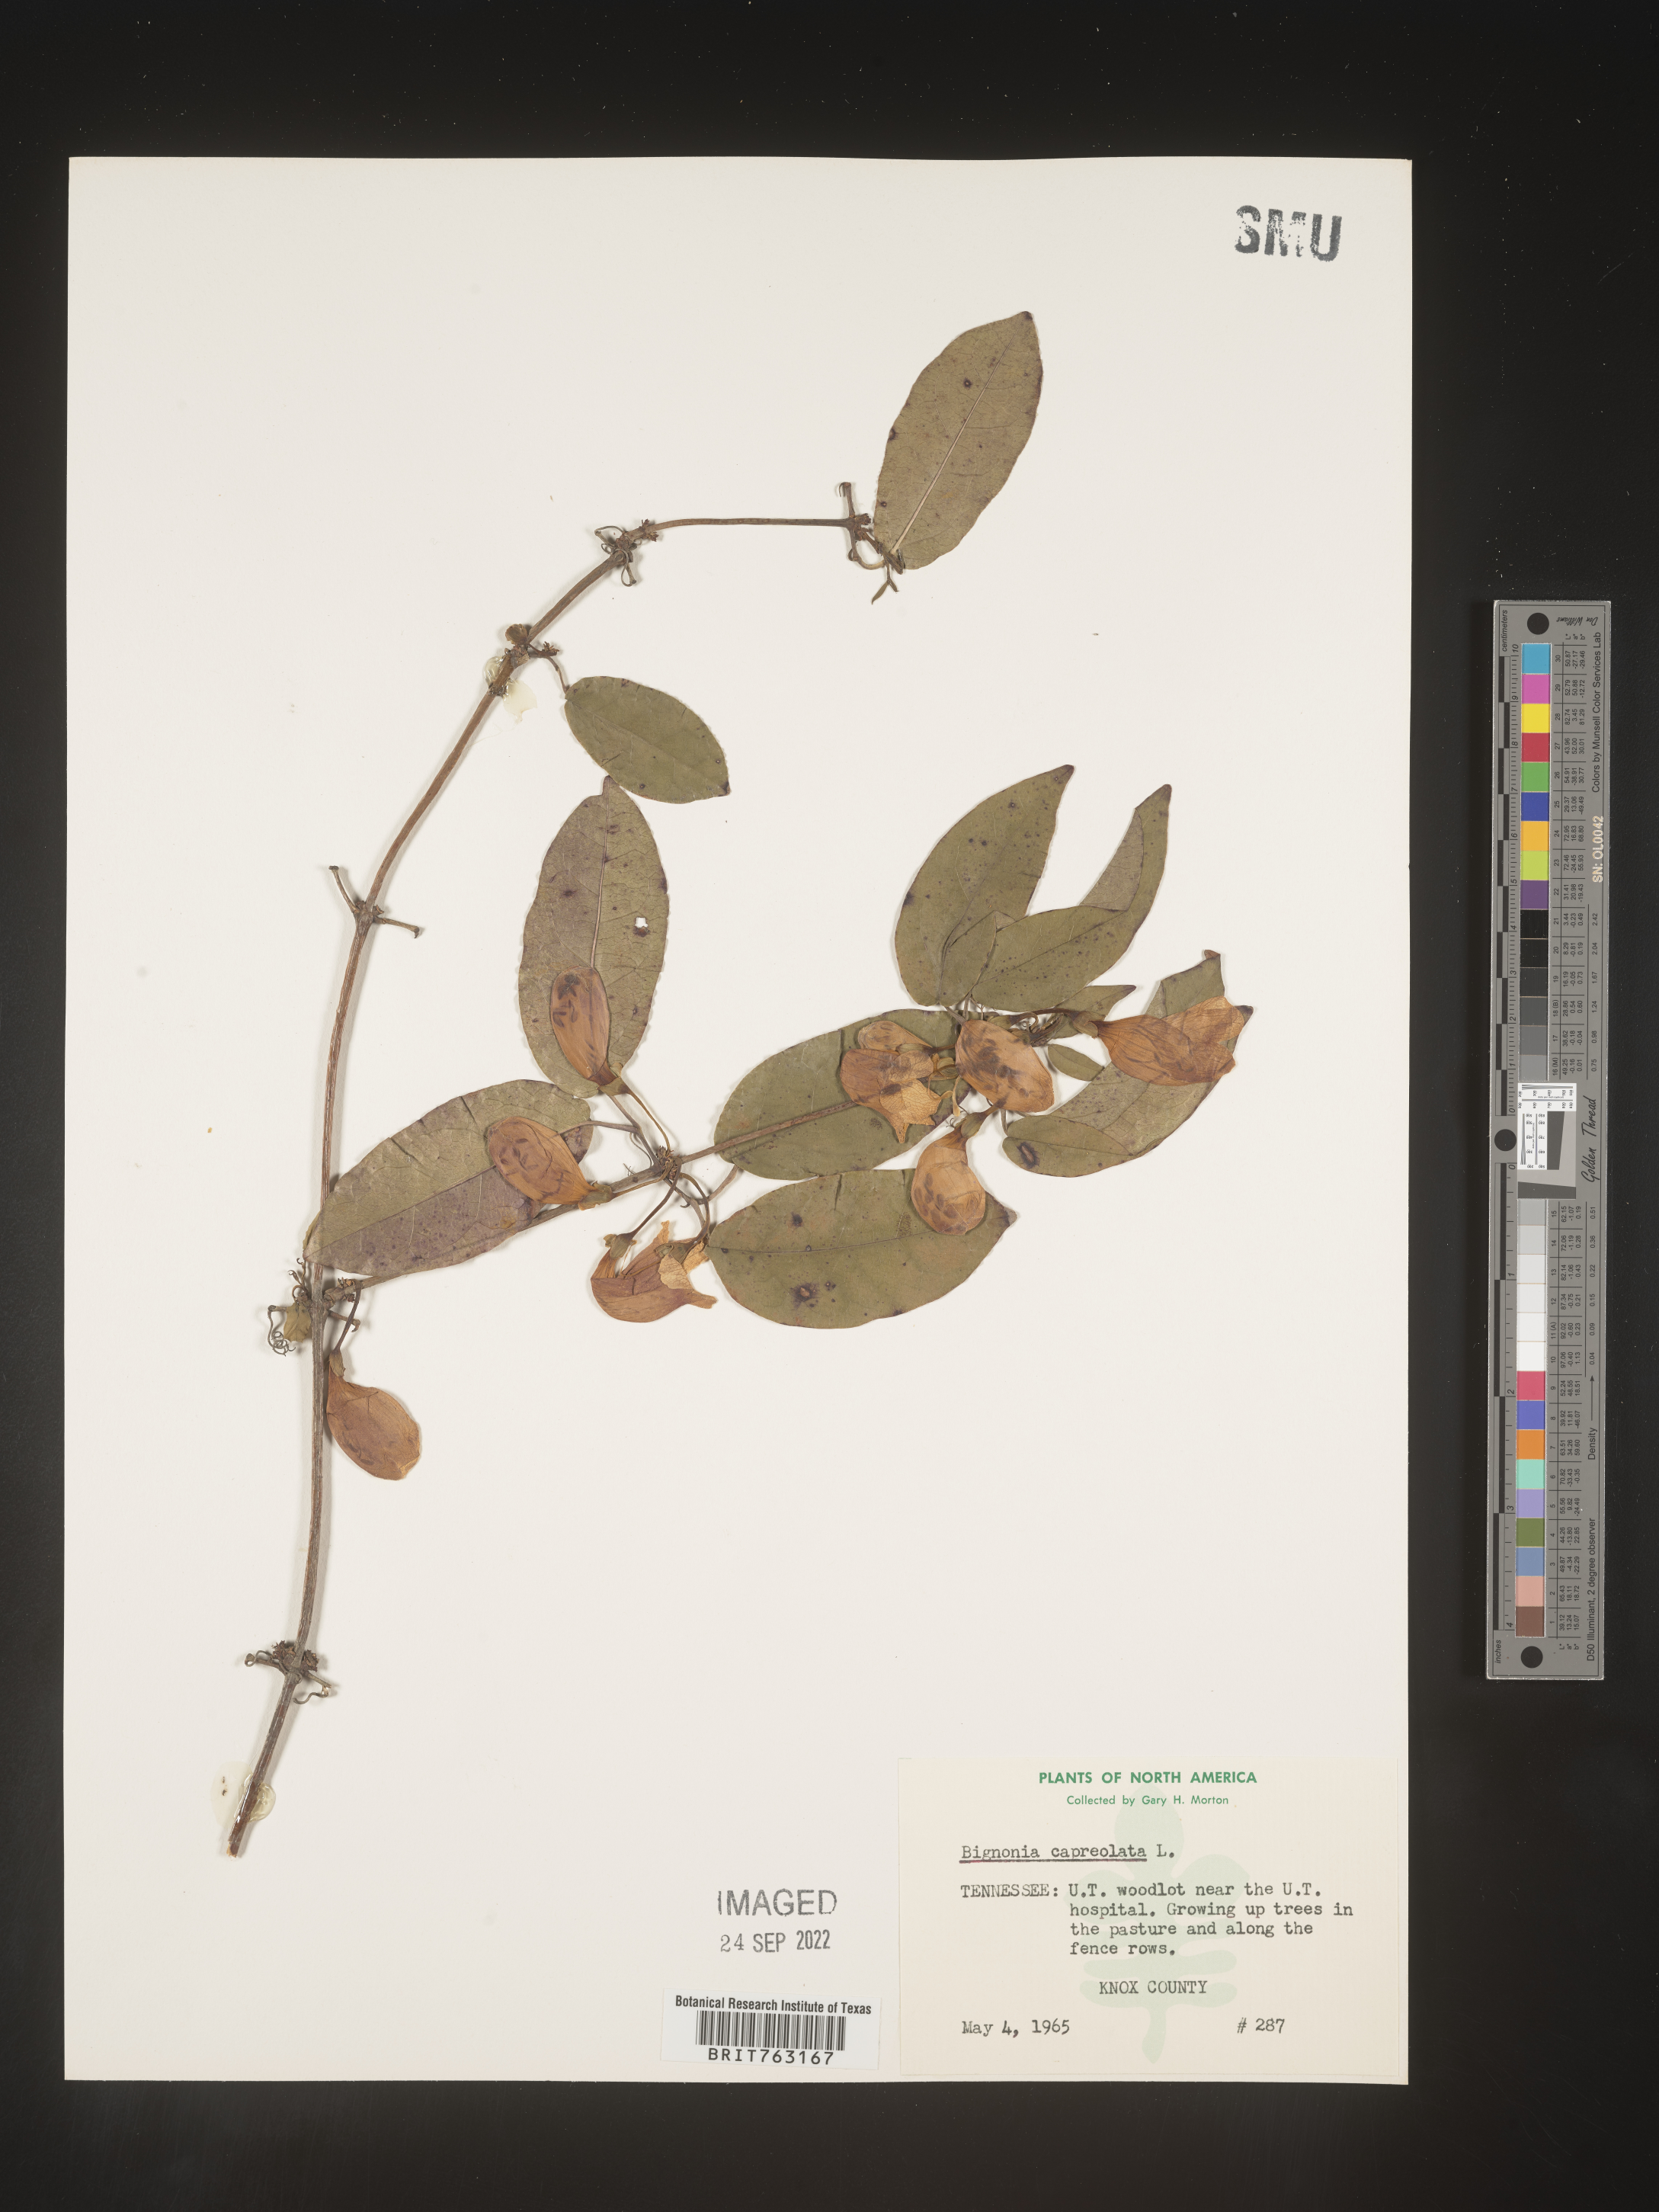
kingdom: Plantae
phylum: Tracheophyta
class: Magnoliopsida
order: Lamiales
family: Bignoniaceae
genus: Bignonia
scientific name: Bignonia capreolata
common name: Crossvine
